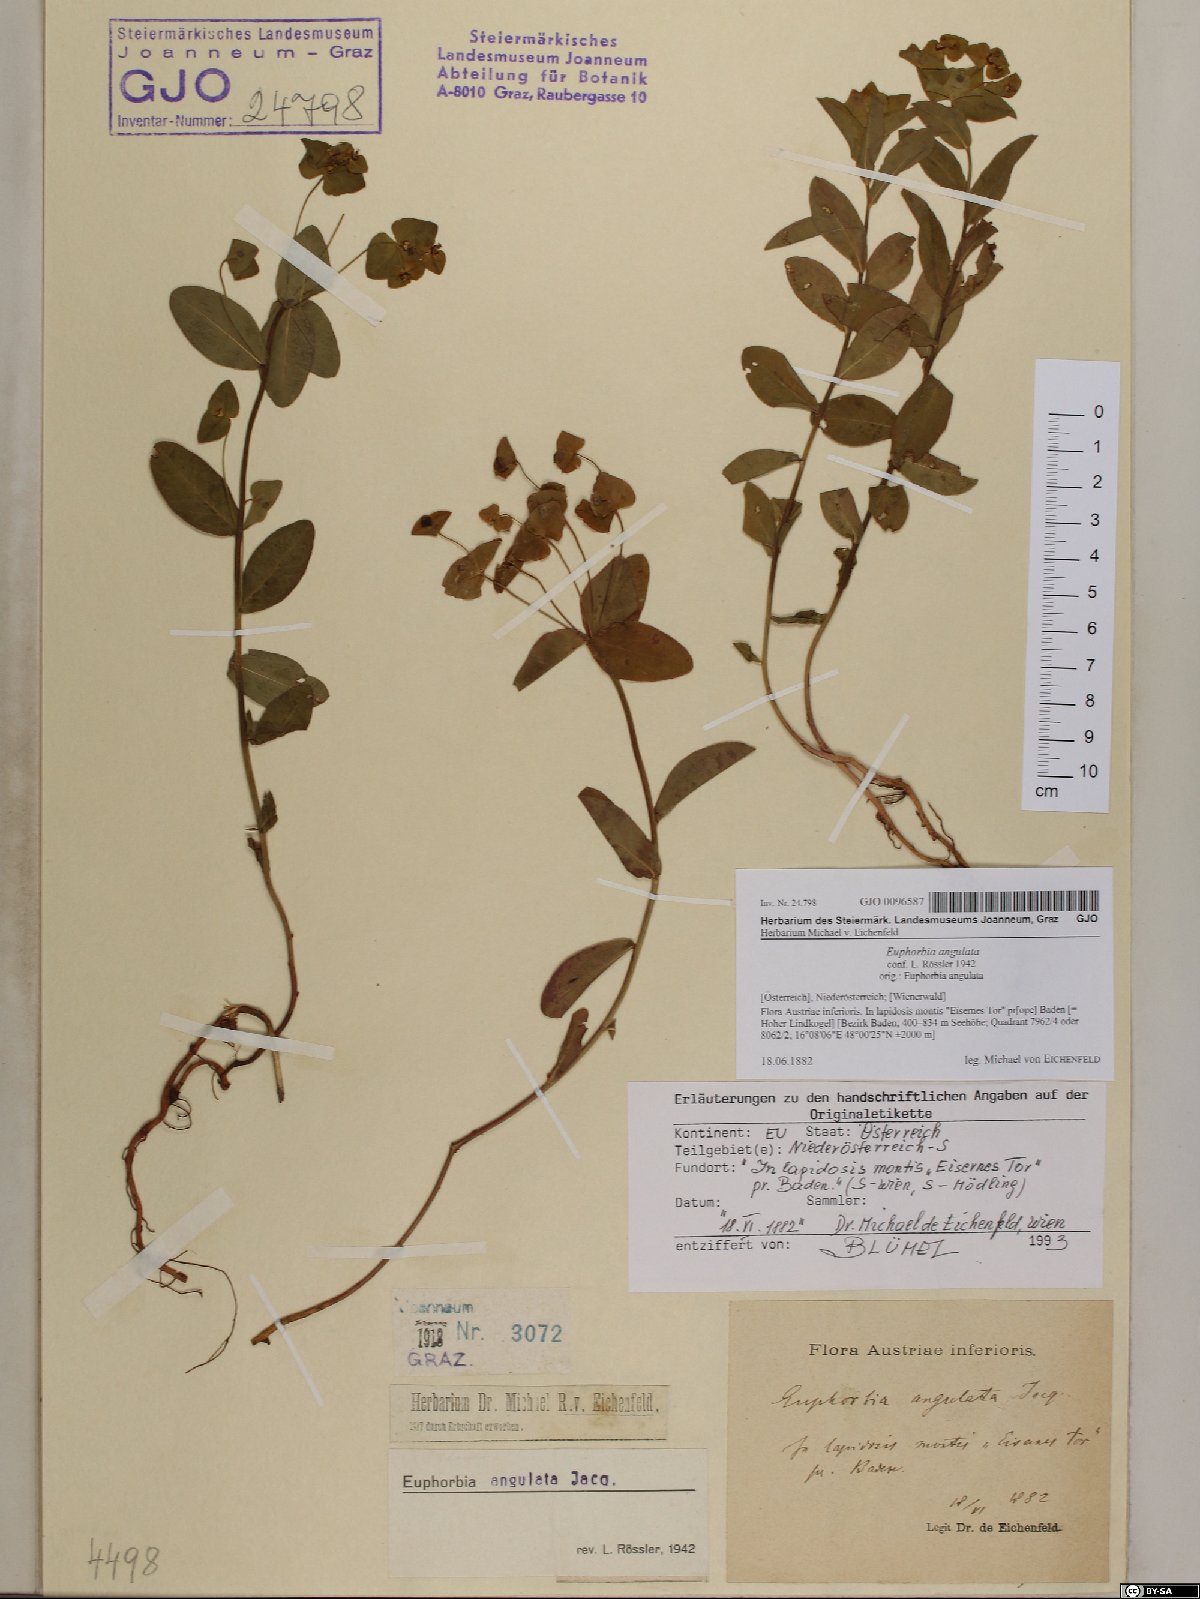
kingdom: Plantae
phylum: Tracheophyta
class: Magnoliopsida
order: Malpighiales
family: Euphorbiaceae
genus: Euphorbia
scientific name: Euphorbia angulata
